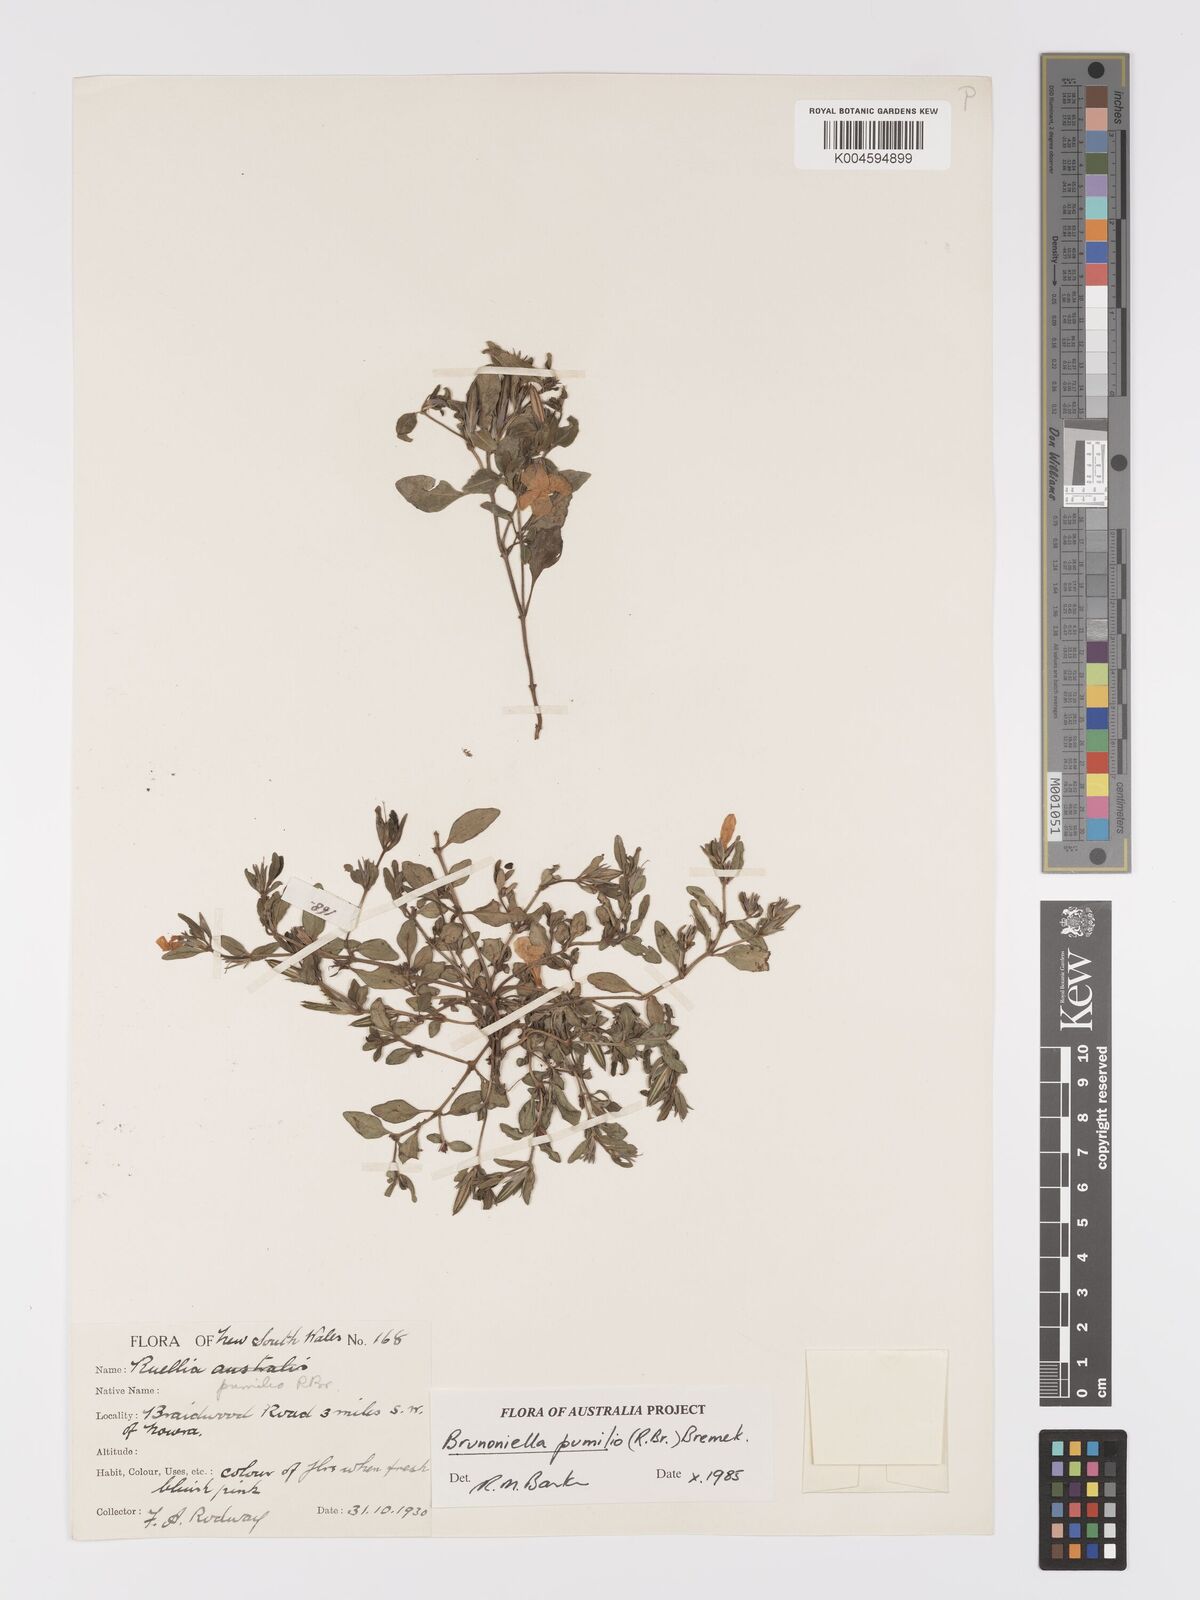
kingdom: Plantae
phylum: Tracheophyta
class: Magnoliopsida
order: Lamiales
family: Acanthaceae
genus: Brunoniella
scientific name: Brunoniella pumilio
